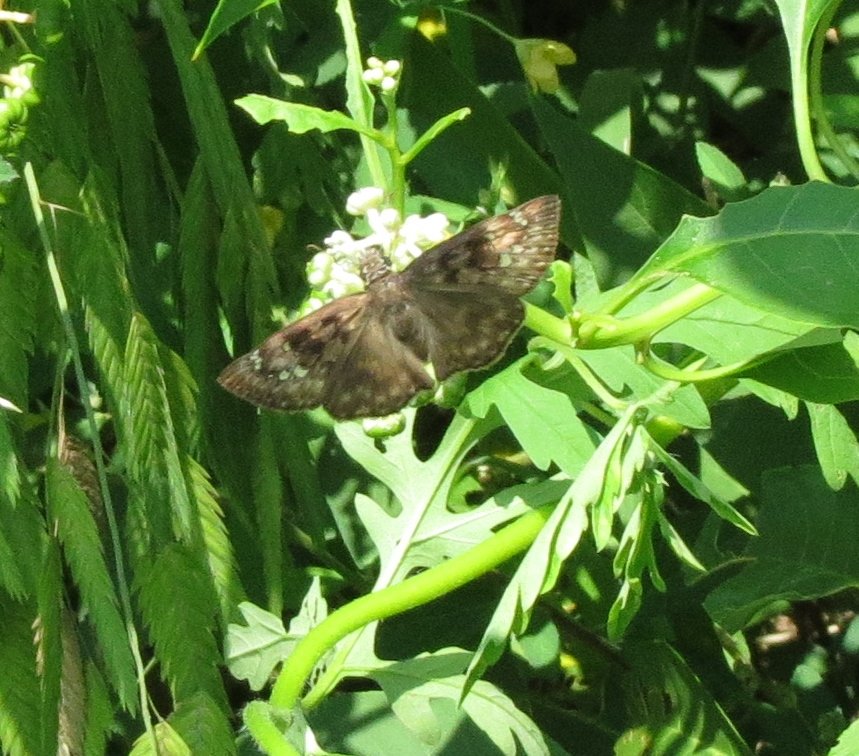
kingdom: Animalia
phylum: Arthropoda
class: Insecta
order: Lepidoptera
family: Hesperiidae
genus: Gesta
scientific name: Gesta
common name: Horace's Duskywing
